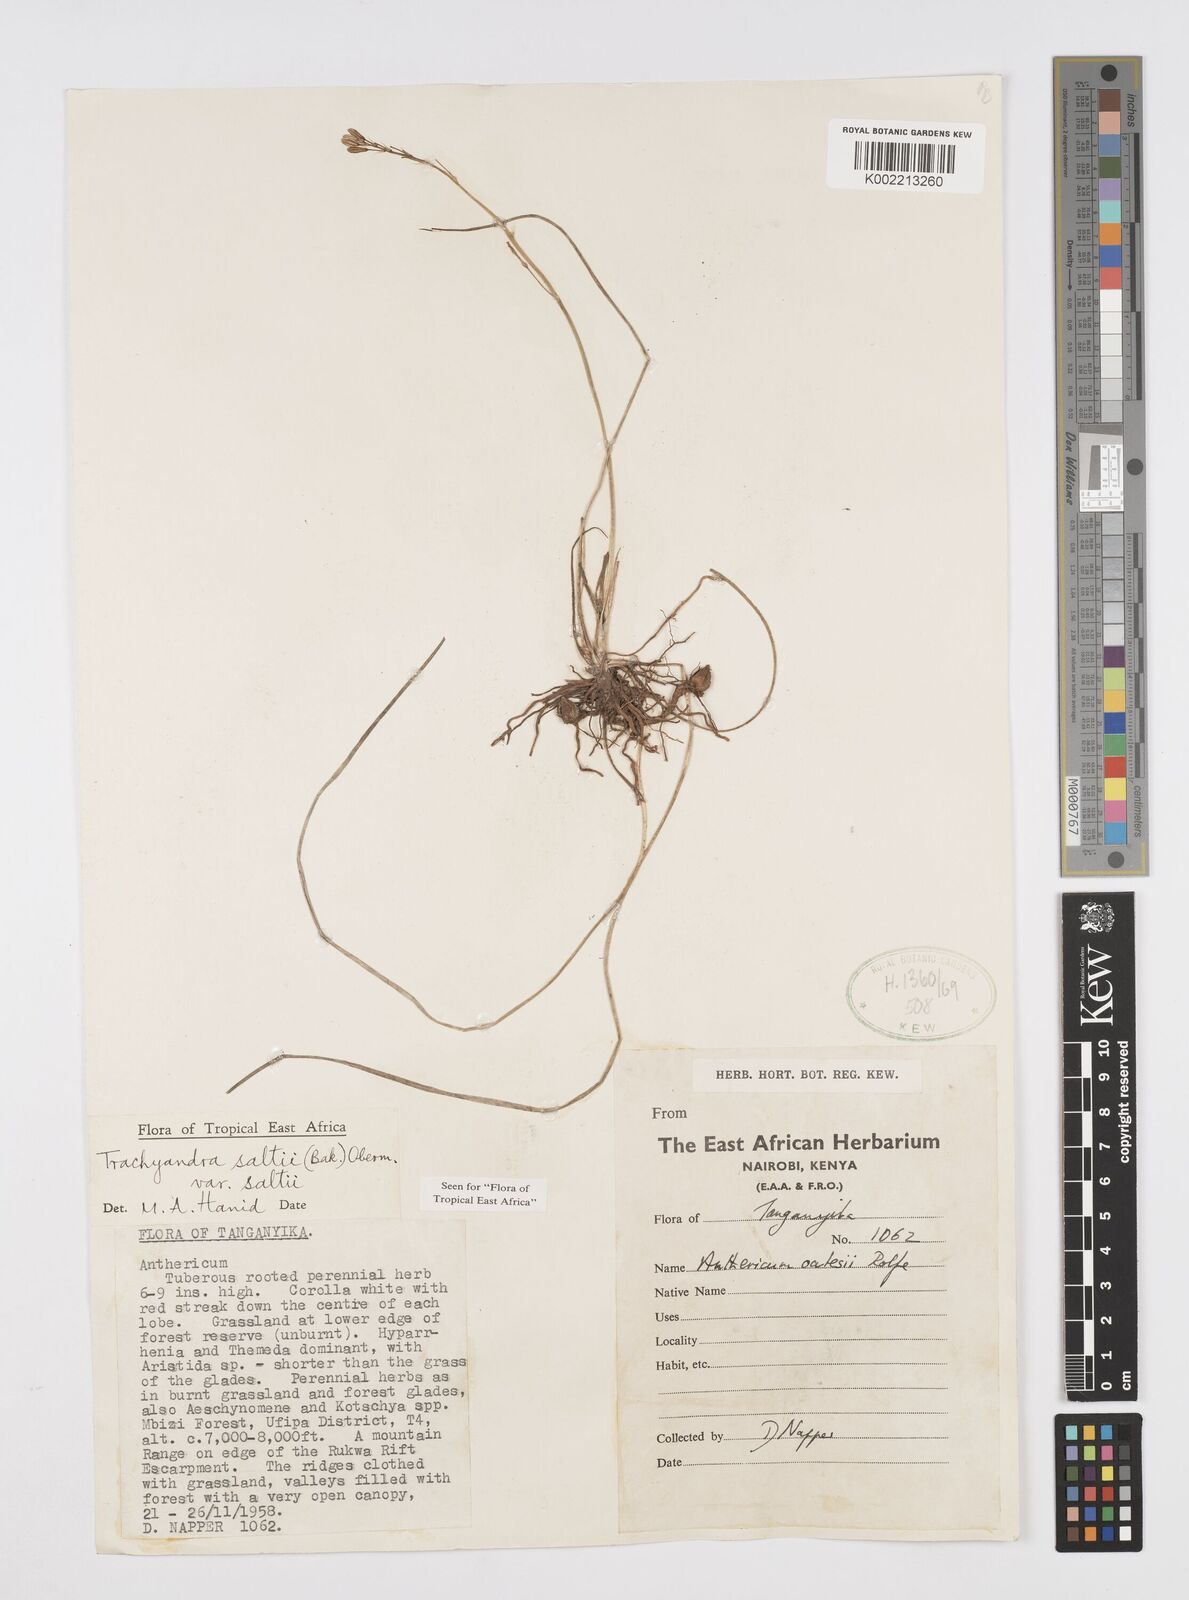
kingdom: Plantae
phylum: Tracheophyta
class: Liliopsida
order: Asparagales
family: Asphodelaceae
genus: Trachyandra
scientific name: Trachyandra saltii
